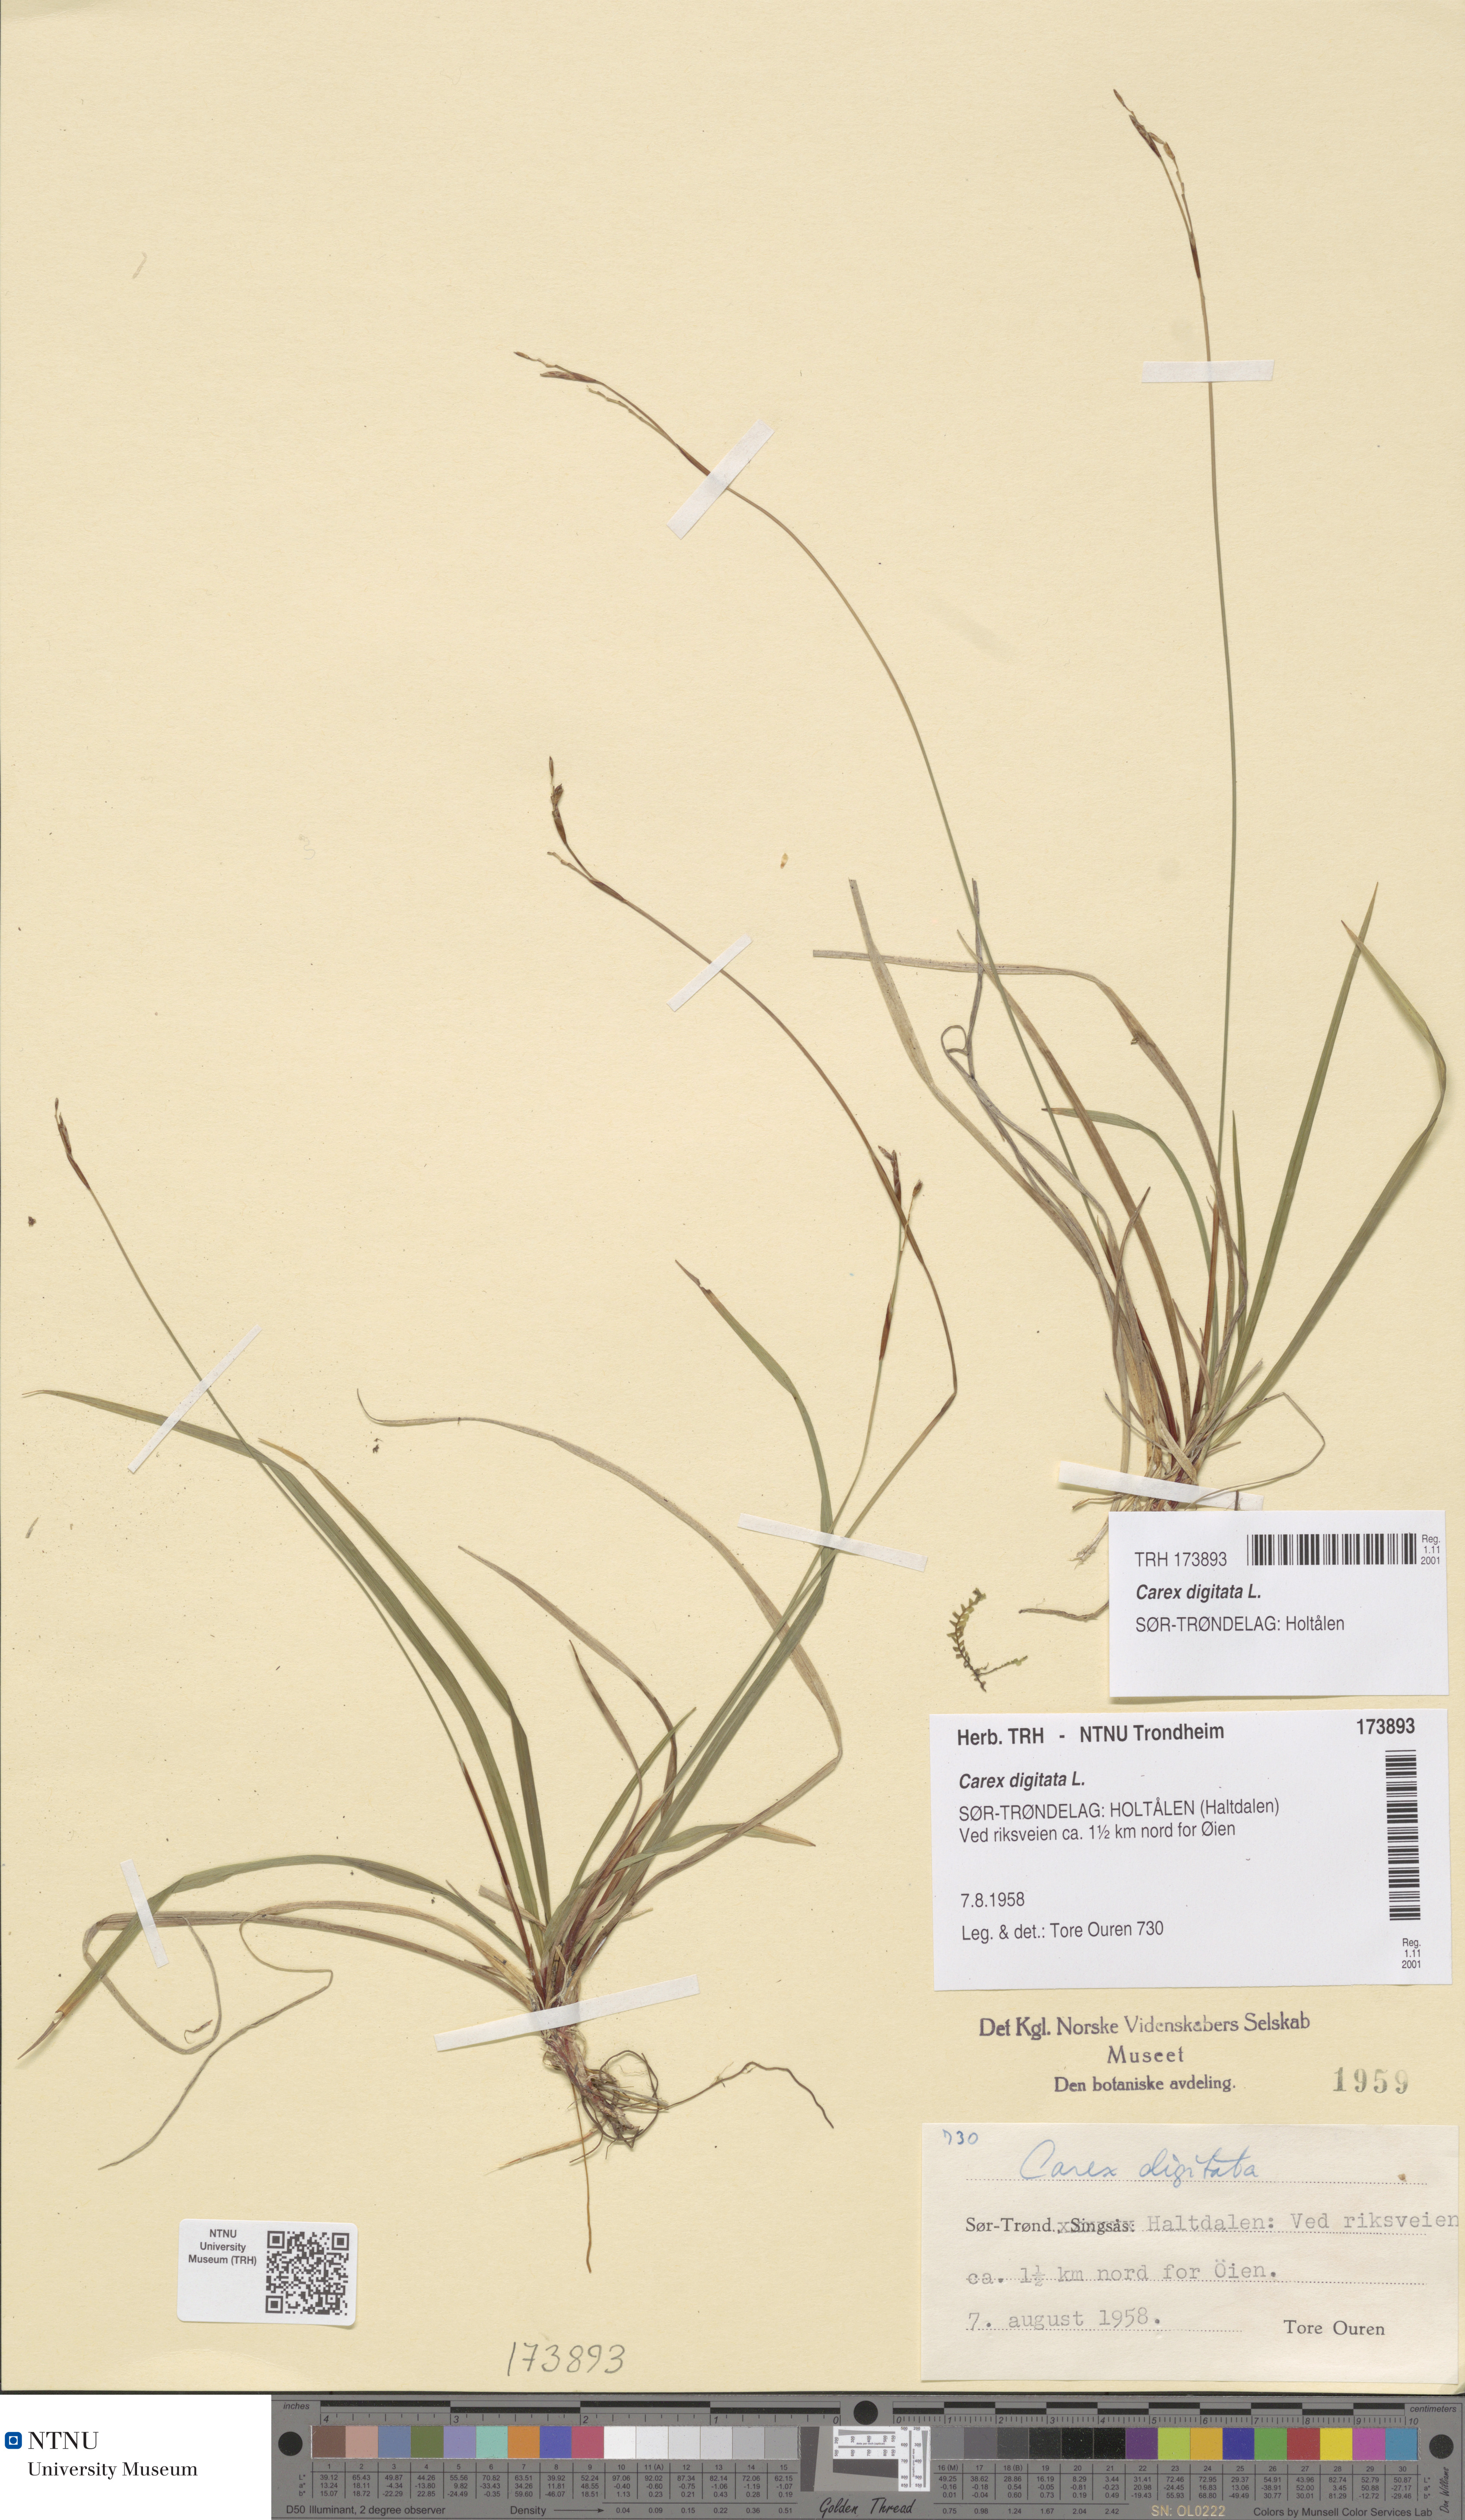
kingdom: Plantae
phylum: Tracheophyta
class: Liliopsida
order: Poales
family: Cyperaceae
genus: Carex
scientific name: Carex digitata
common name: Fingered sedge
